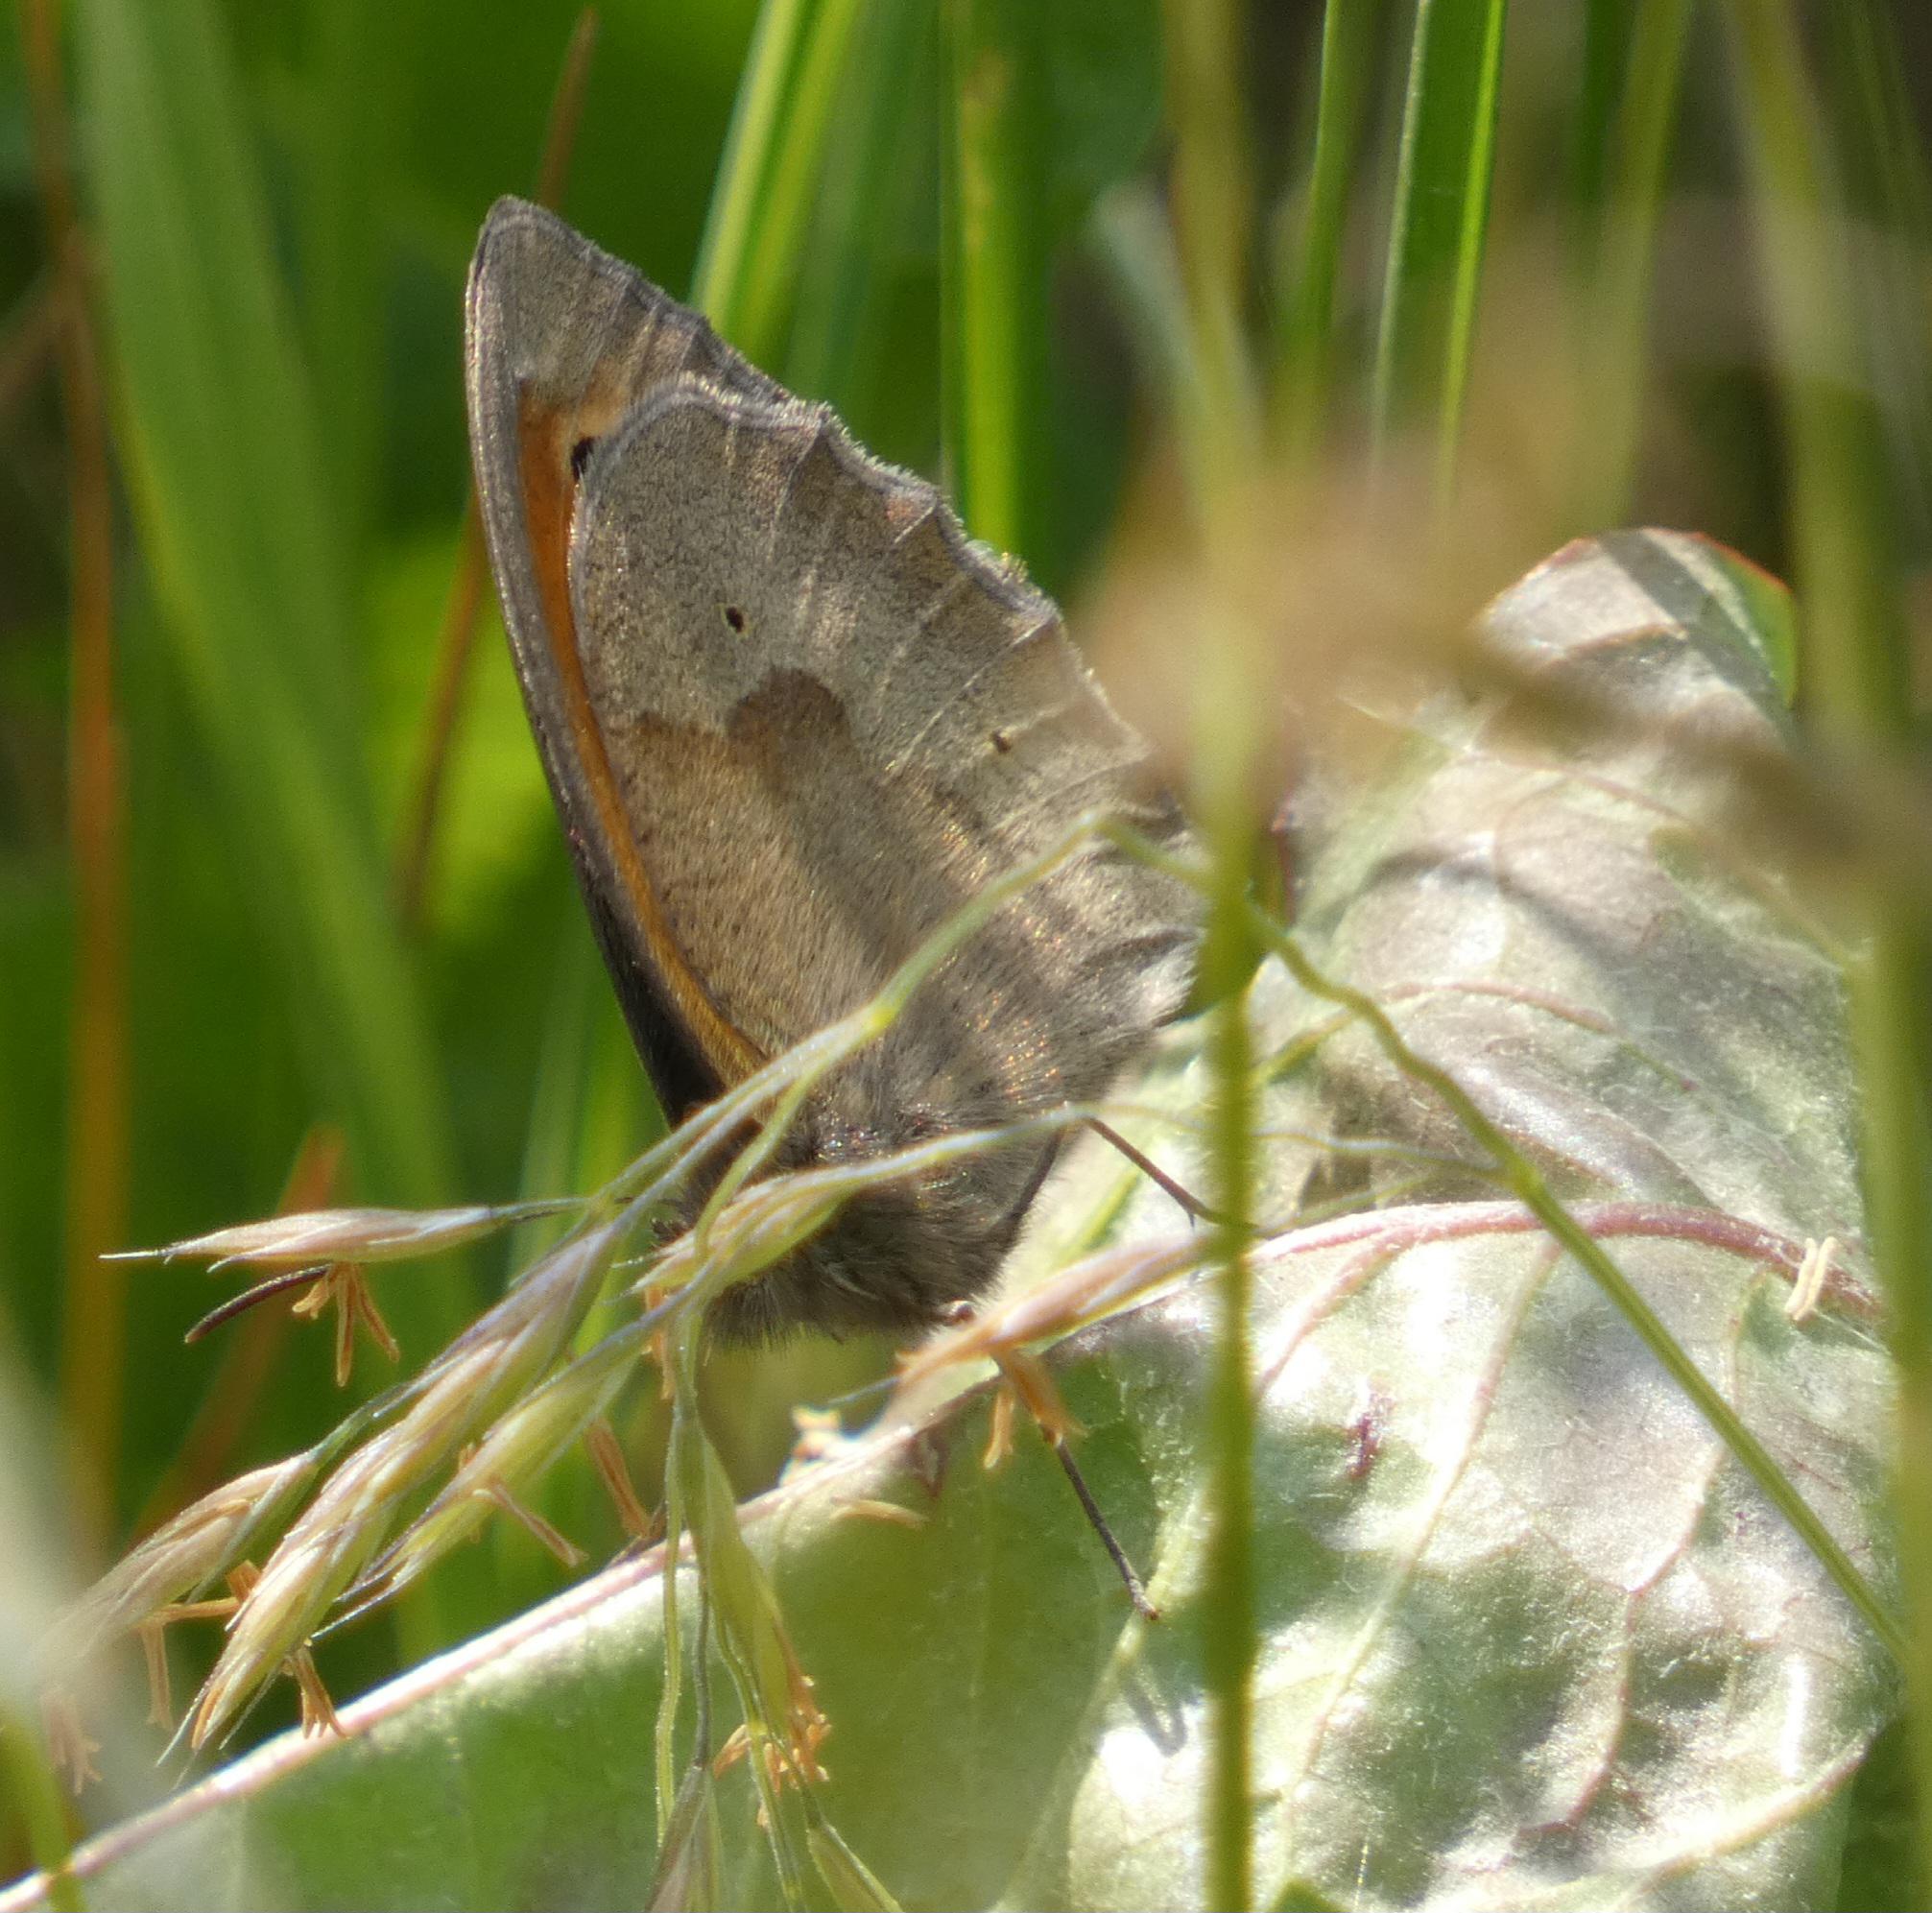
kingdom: Animalia
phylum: Arthropoda
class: Insecta
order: Lepidoptera
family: Nymphalidae
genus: Maniola
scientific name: Maniola jurtina
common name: Græsrandøje
